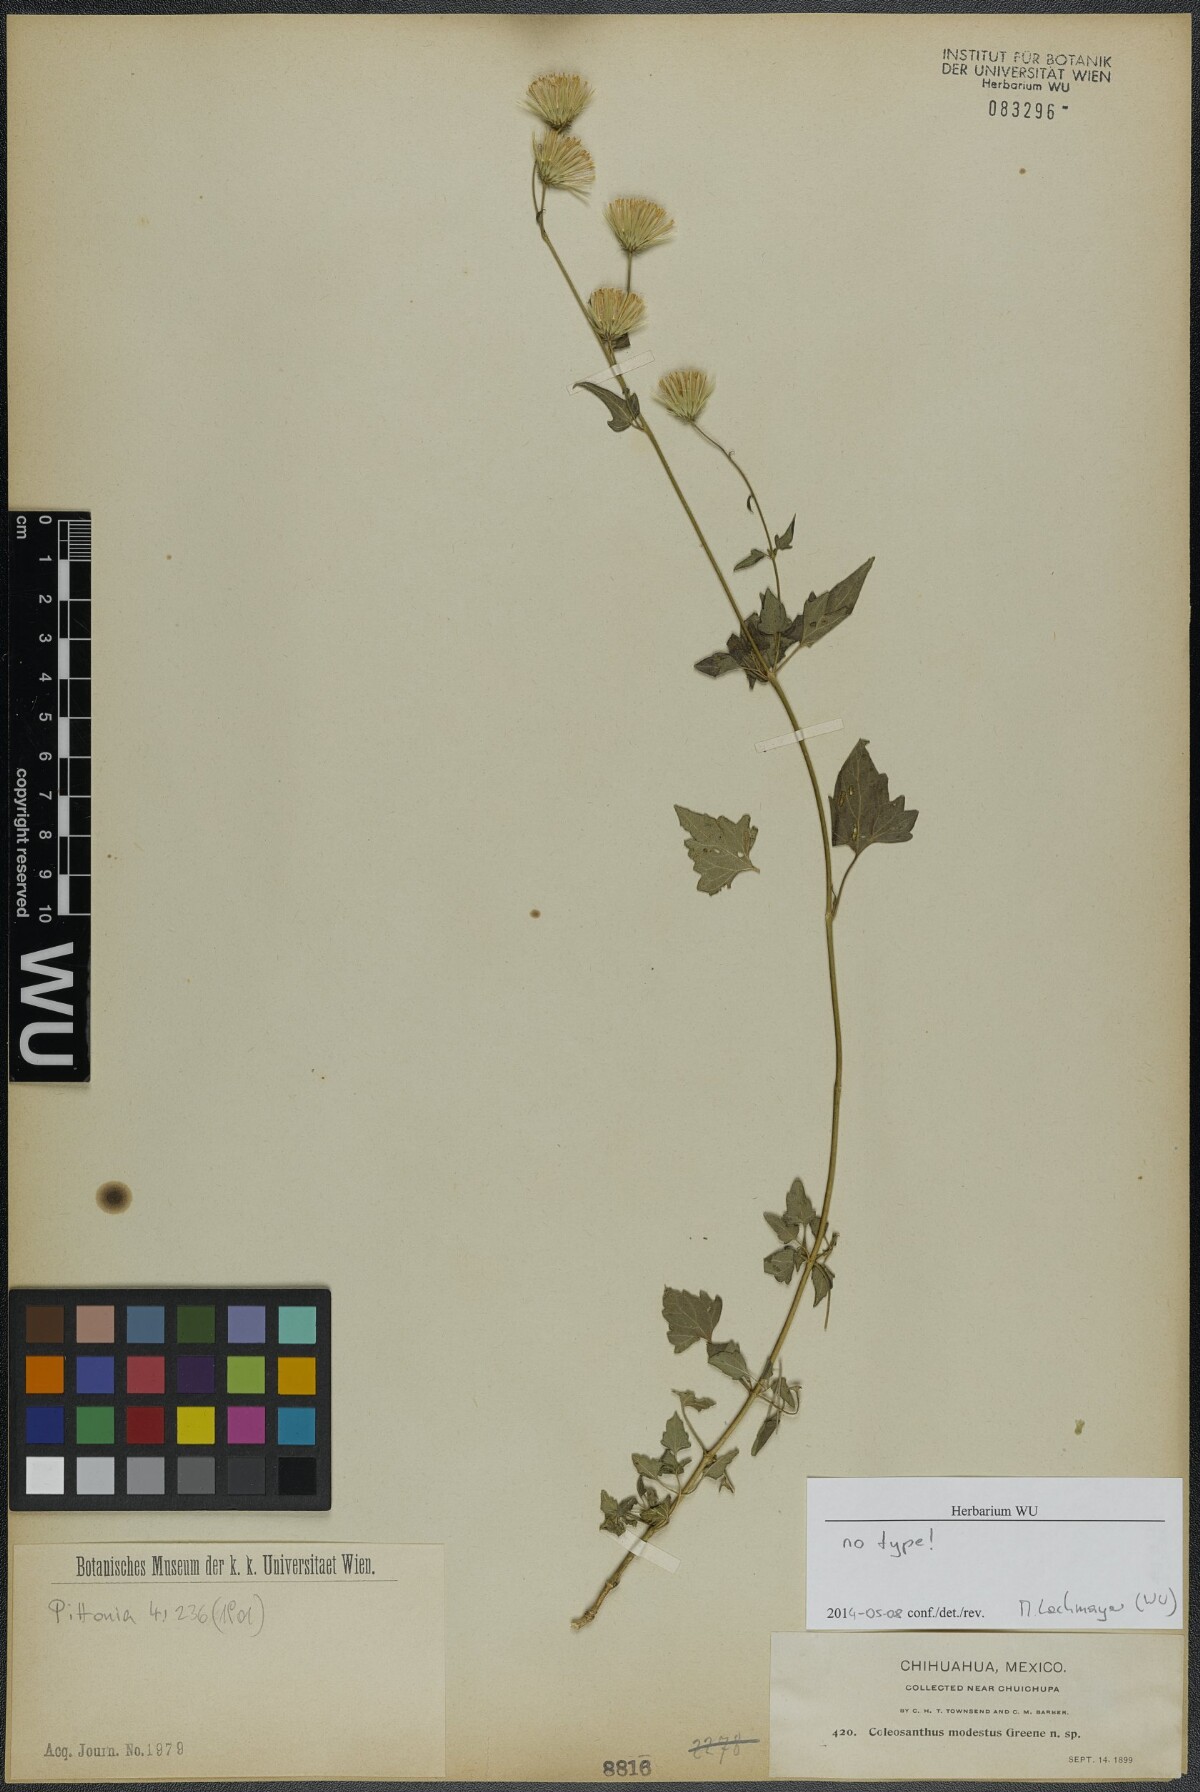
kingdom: Plantae
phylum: Tracheophyta
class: Magnoliopsida
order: Asterales
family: Asteraceae
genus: Brickelliastrum
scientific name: Brickelliastrum fendleri
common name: Fendler's-brickellbush
